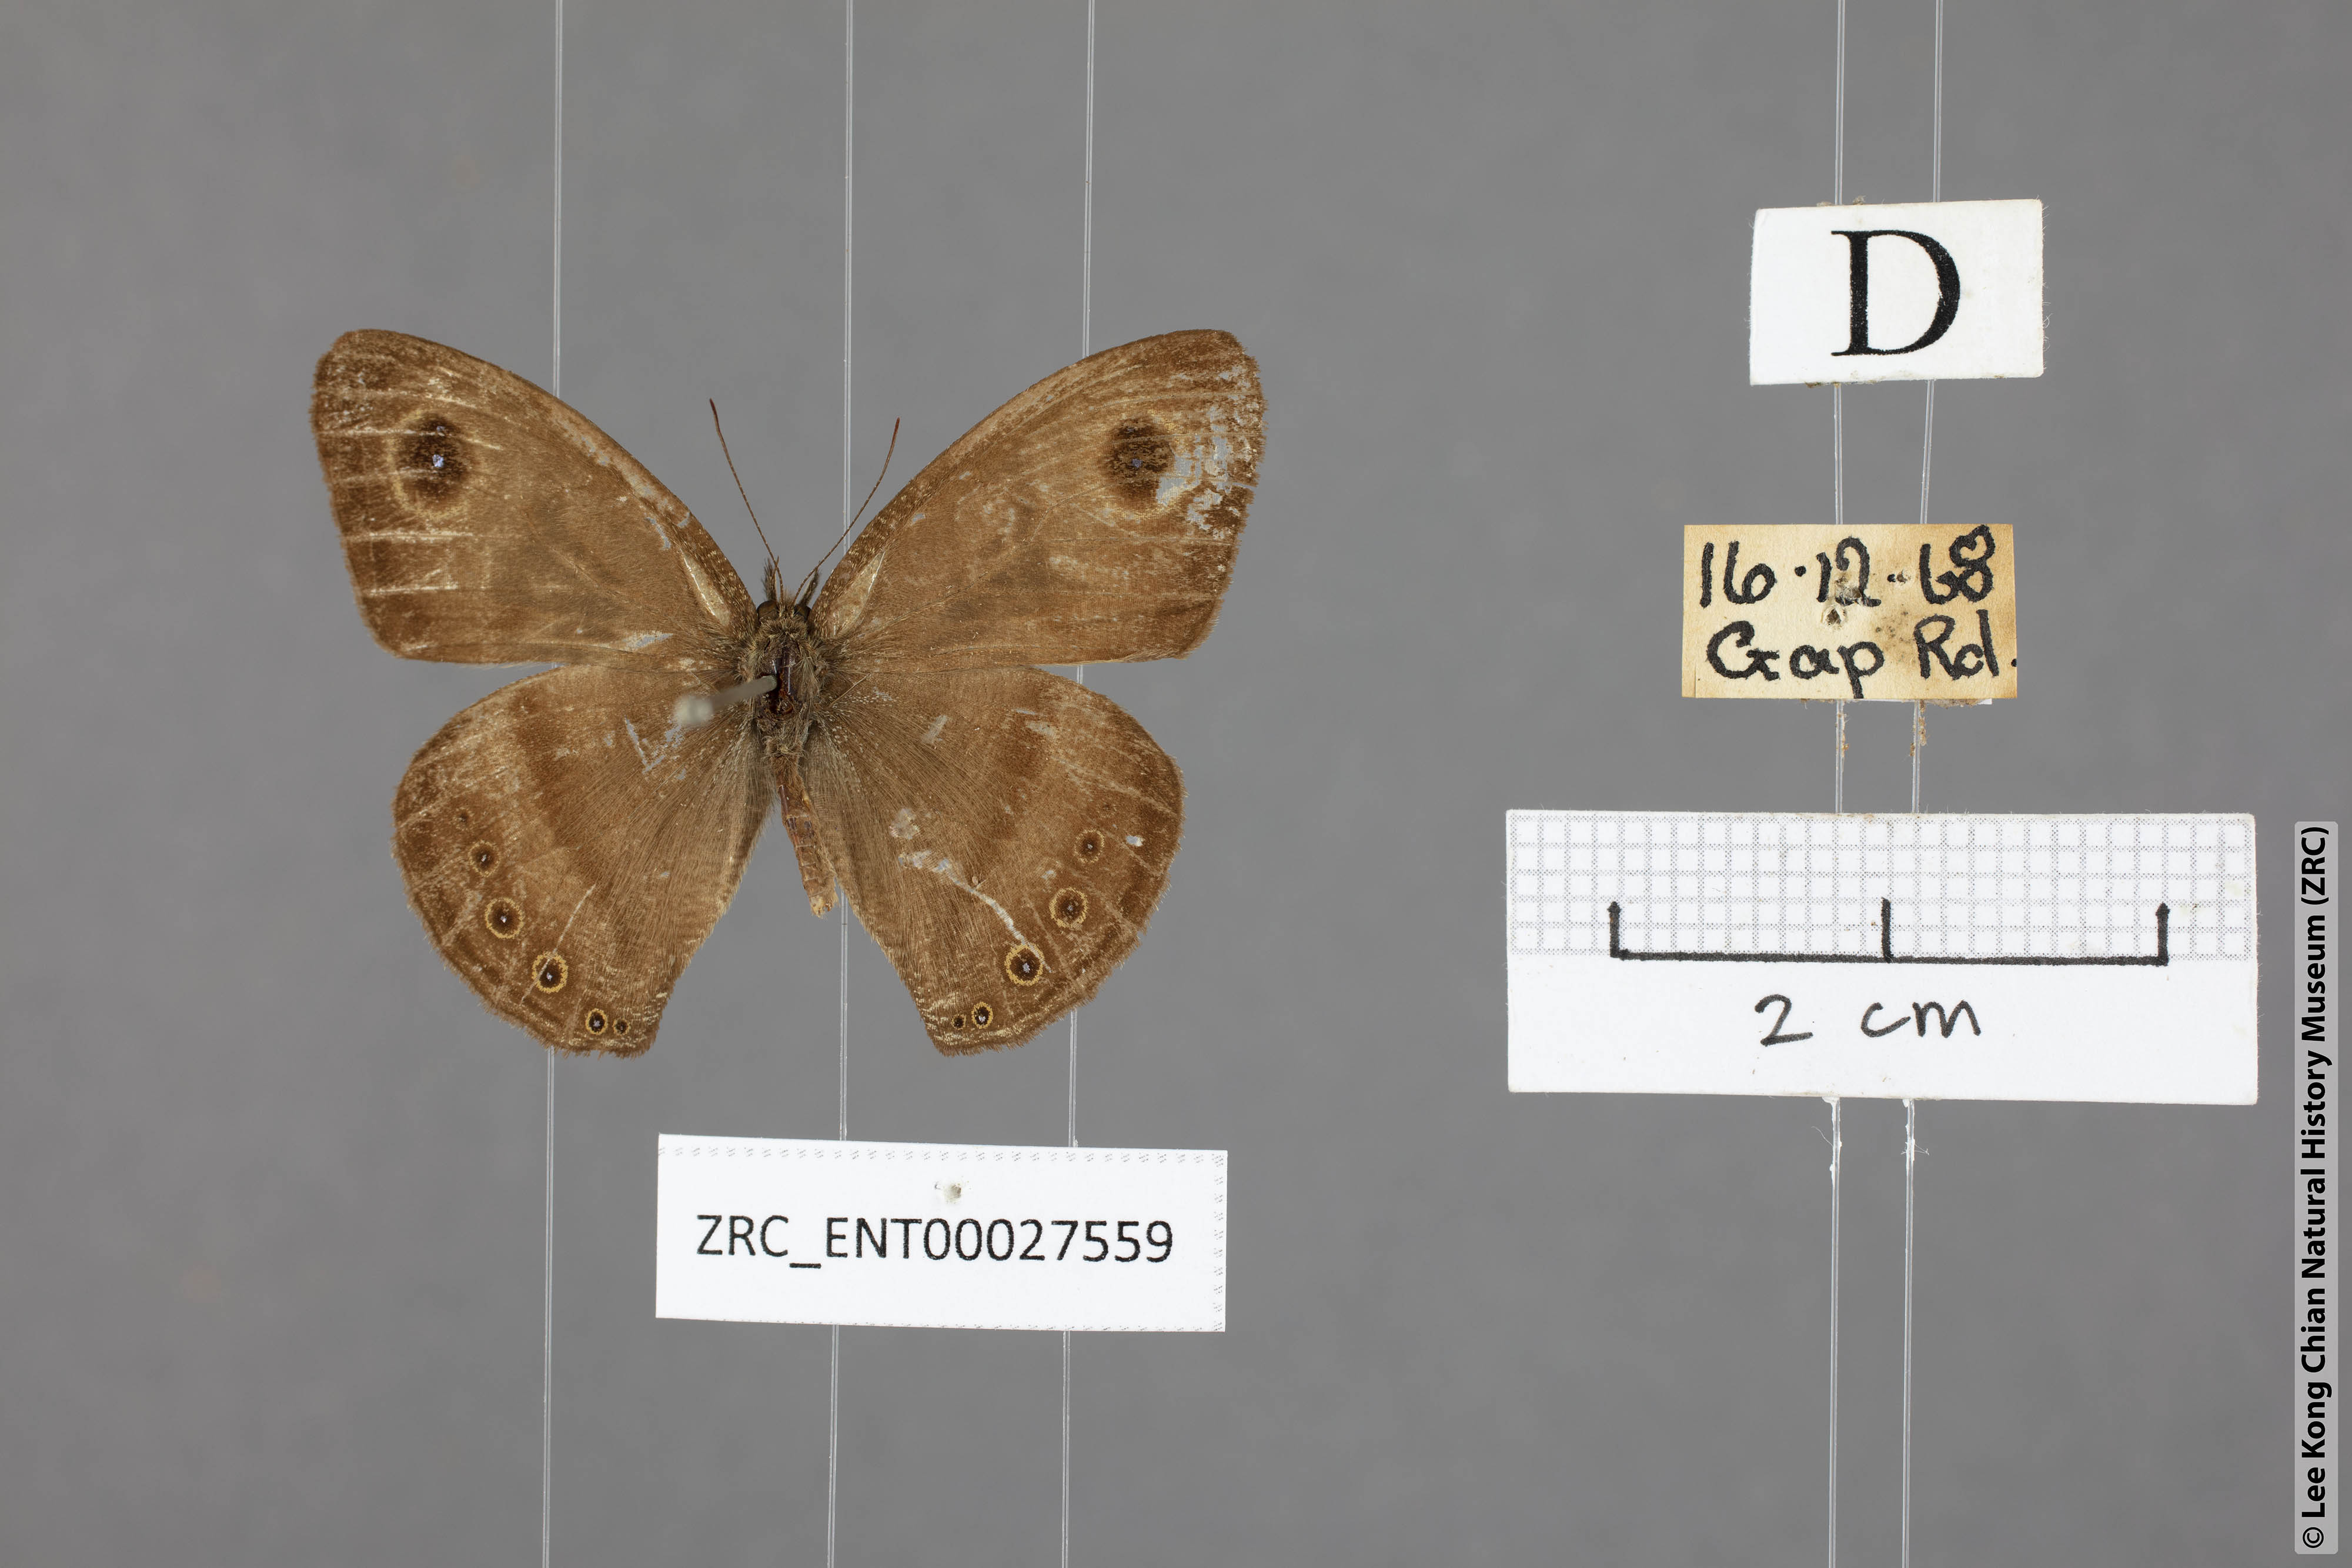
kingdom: Animalia
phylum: Arthropoda
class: Insecta
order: Lepidoptera
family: Nymphalidae
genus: Ypthima
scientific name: Ypthima fasciata
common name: Malayan six-ring
